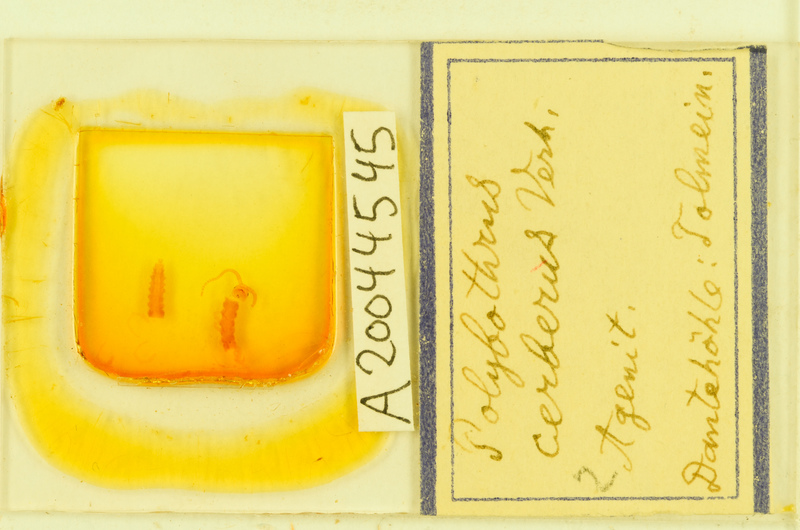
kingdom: Animalia
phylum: Arthropoda
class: Chilopoda
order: Lithobiomorpha
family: Lithobiidae
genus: Polybothrus
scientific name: Polybothrus cerberus
